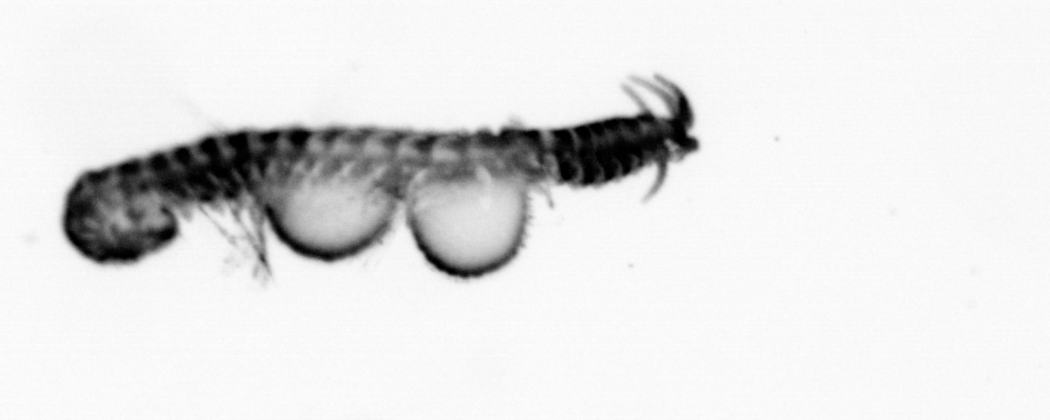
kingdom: Animalia
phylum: Annelida
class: Polychaeta
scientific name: Polychaeta
